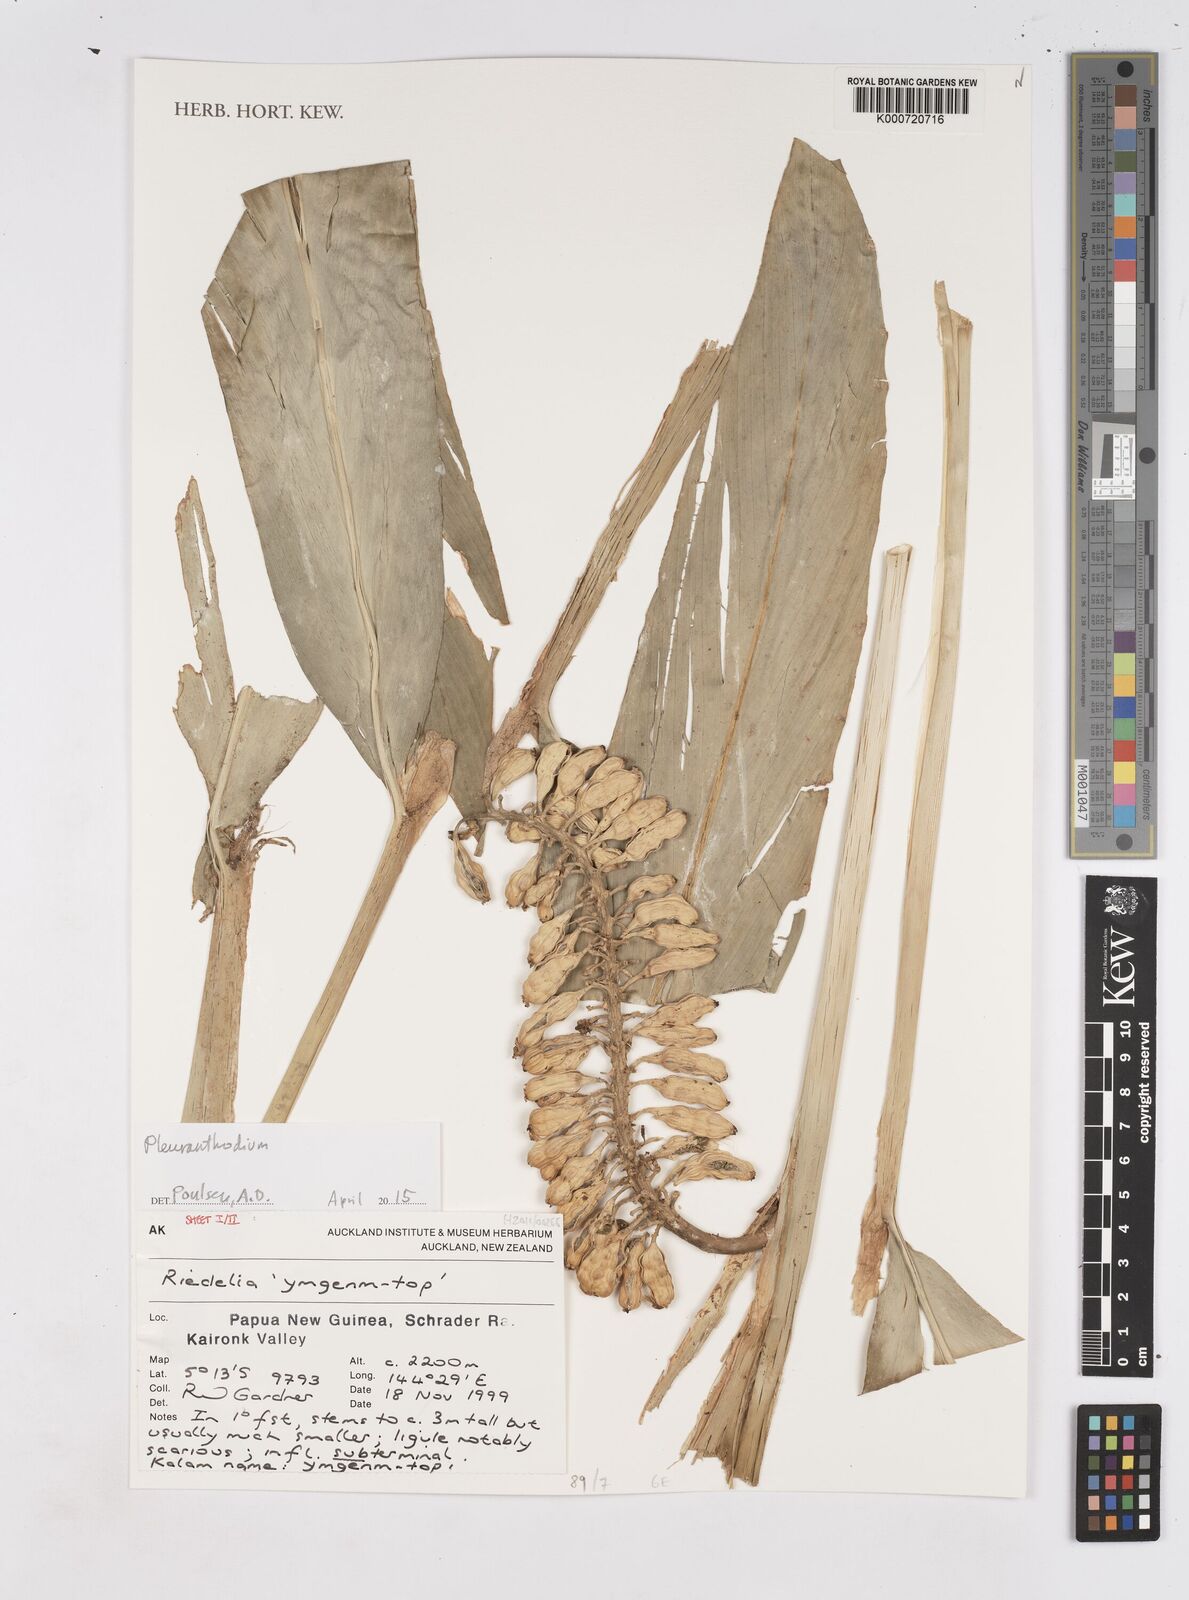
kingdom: Plantae
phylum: Tracheophyta
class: Liliopsida
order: Zingiberales
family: Zingiberaceae
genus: Pleuranthodium
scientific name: Pleuranthodium
